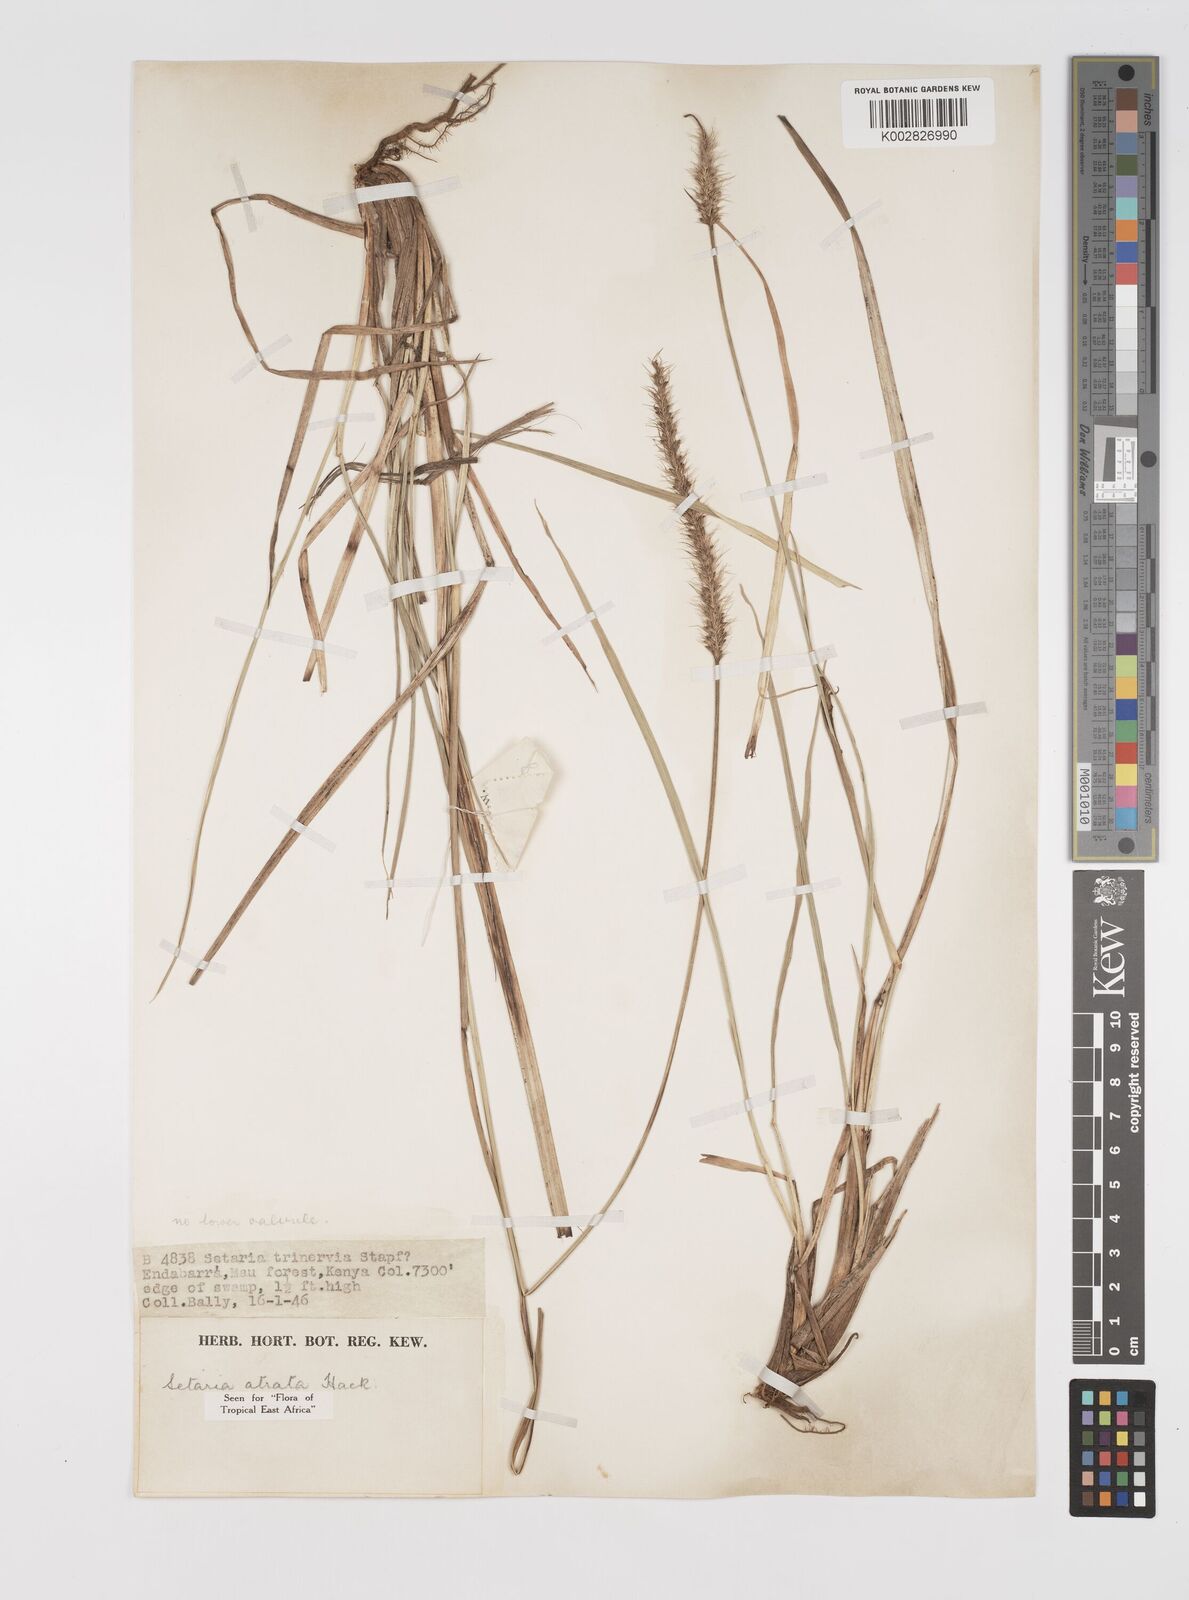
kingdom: Plantae
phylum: Tracheophyta
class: Liliopsida
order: Poales
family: Poaceae
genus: Setaria
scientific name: Setaria atrata
